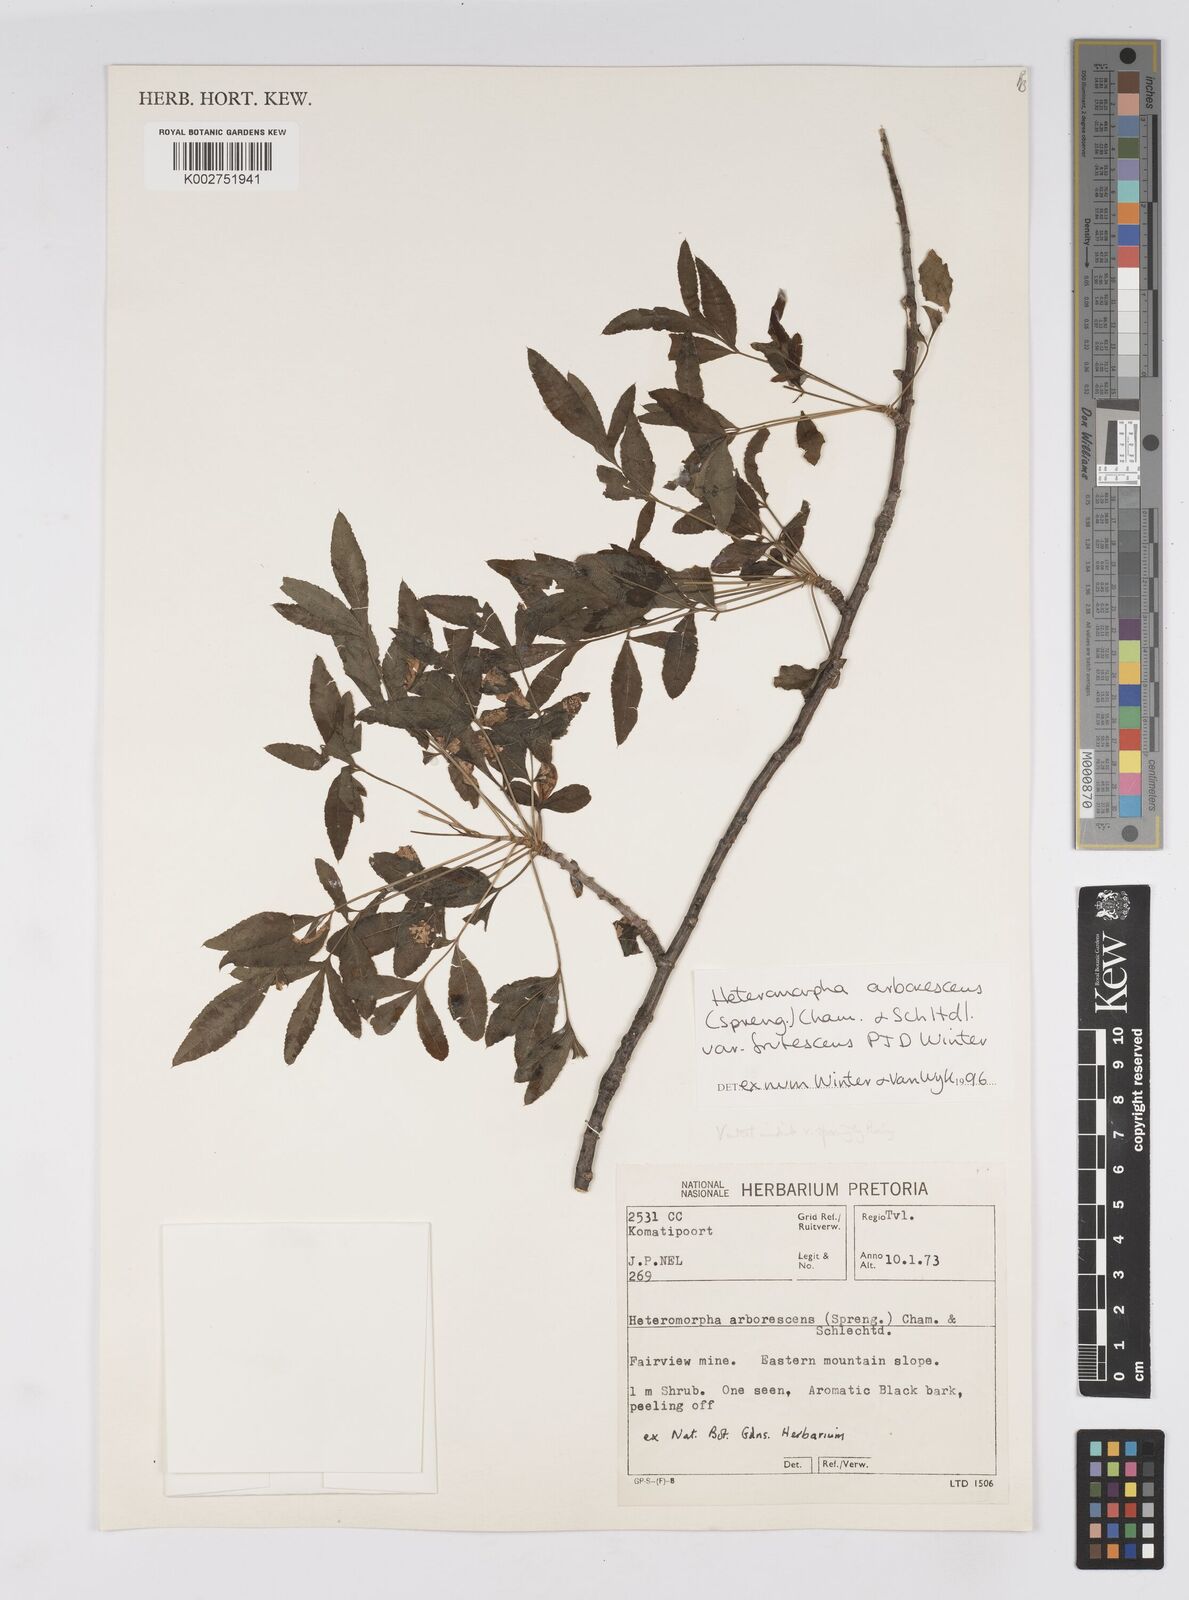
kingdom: Plantae
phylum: Tracheophyta
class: Magnoliopsida
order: Apiales
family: Apiaceae
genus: Heteromorpha
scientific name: Heteromorpha arborescens
